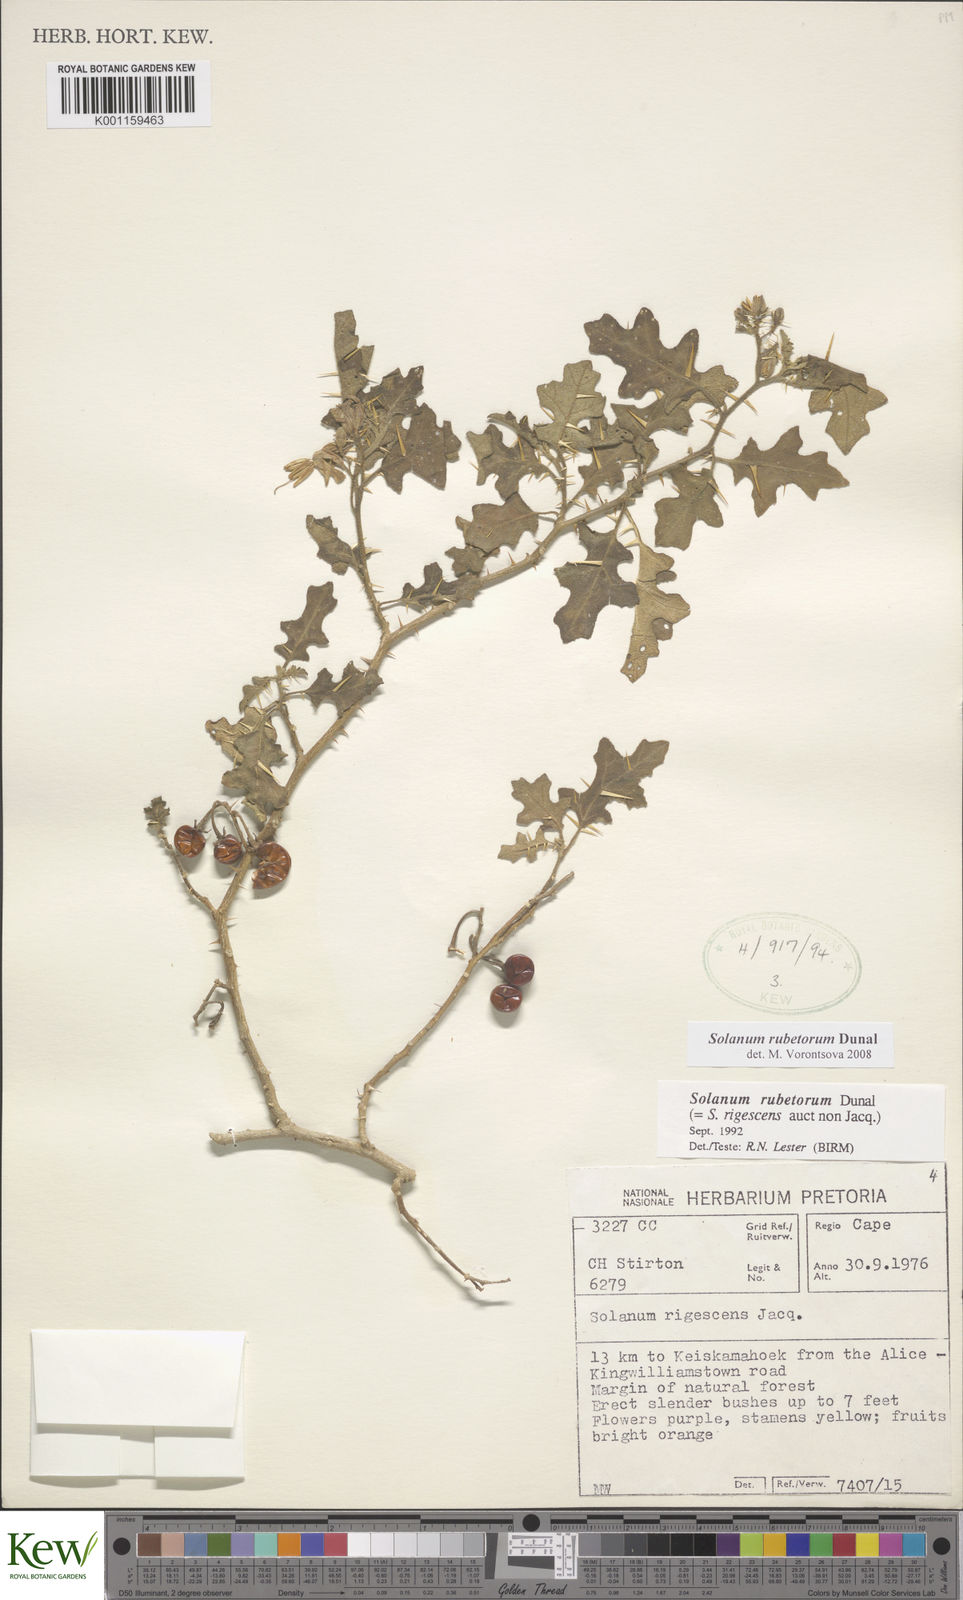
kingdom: Plantae
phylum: Tracheophyta
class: Magnoliopsida
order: Solanales
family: Solanaceae
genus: Solanum
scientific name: Solanum rubetorum
